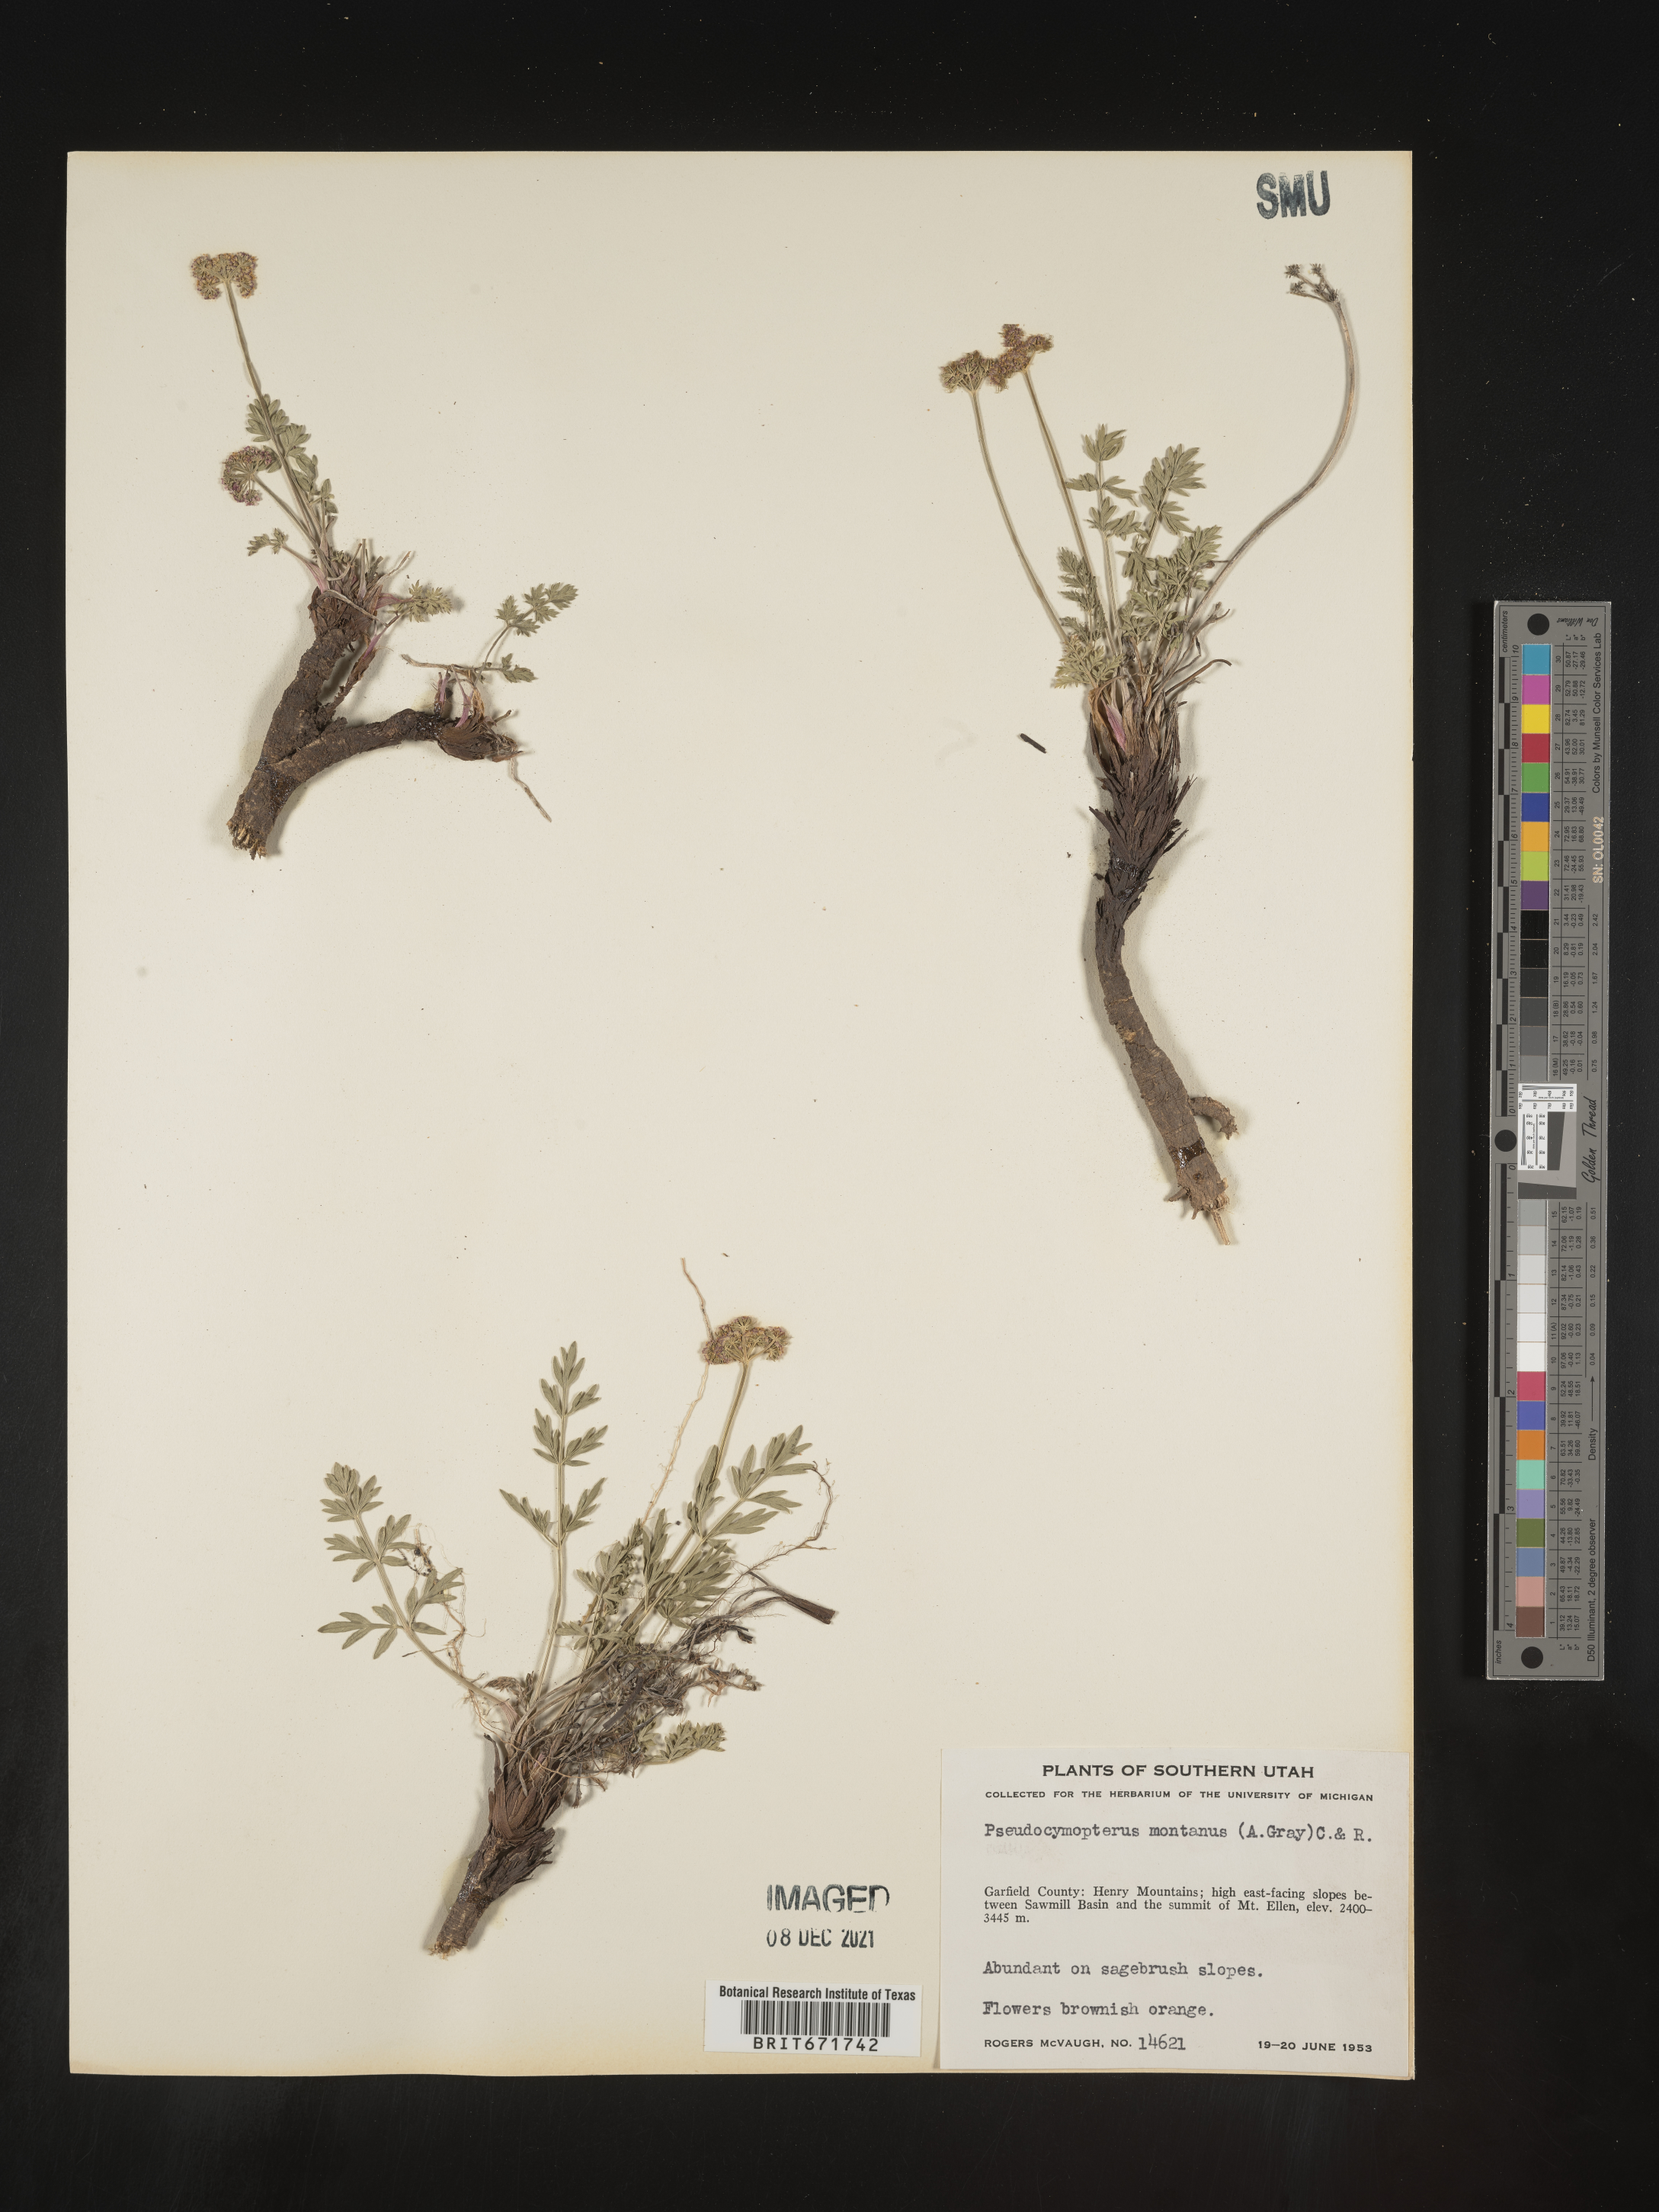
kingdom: Plantae
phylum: Tracheophyta
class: Magnoliopsida
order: Apiales
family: Apiaceae
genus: Cymopterus
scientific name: Cymopterus lemmonii
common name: Lemmon's spring-parsley
